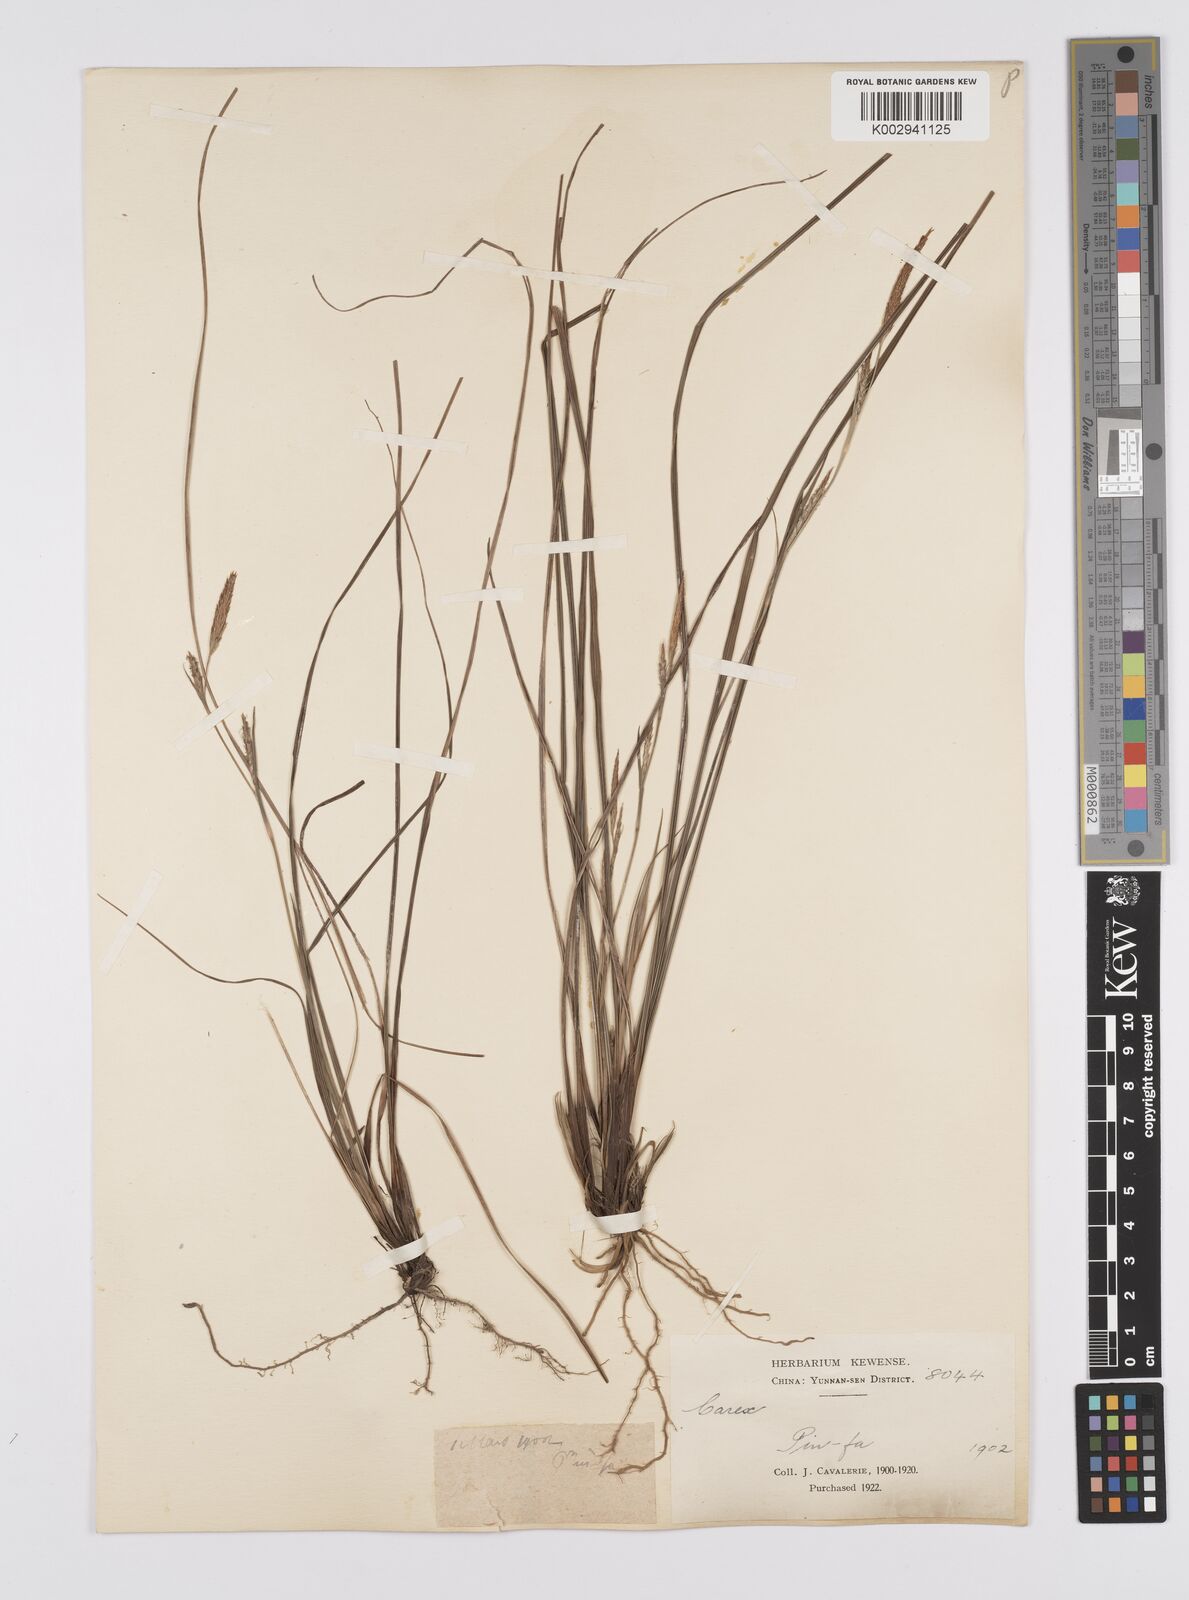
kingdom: Plantae
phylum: Tracheophyta
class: Liliopsida
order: Poales
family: Cyperaceae
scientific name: Cyperaceae
